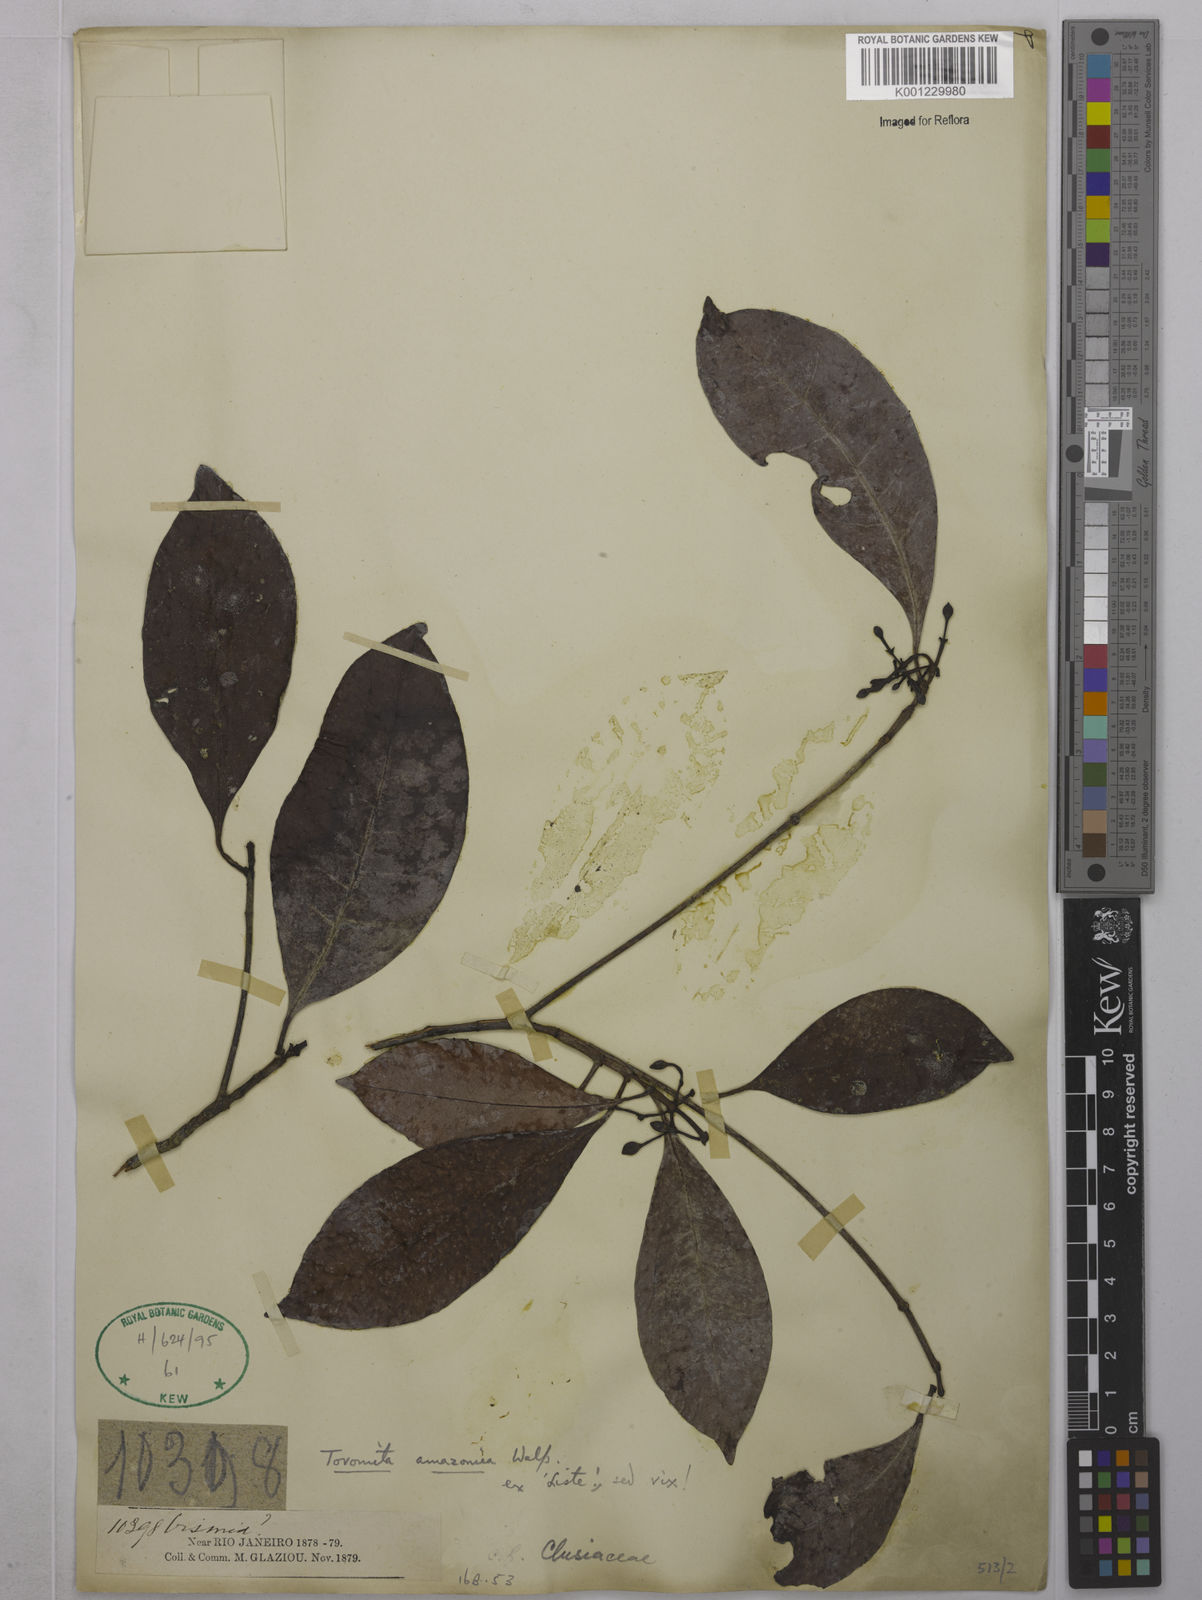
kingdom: Plantae
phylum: Tracheophyta
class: Magnoliopsida
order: Malpighiales
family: Clusiaceae
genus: Tovomita
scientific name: Tovomita amazonica
